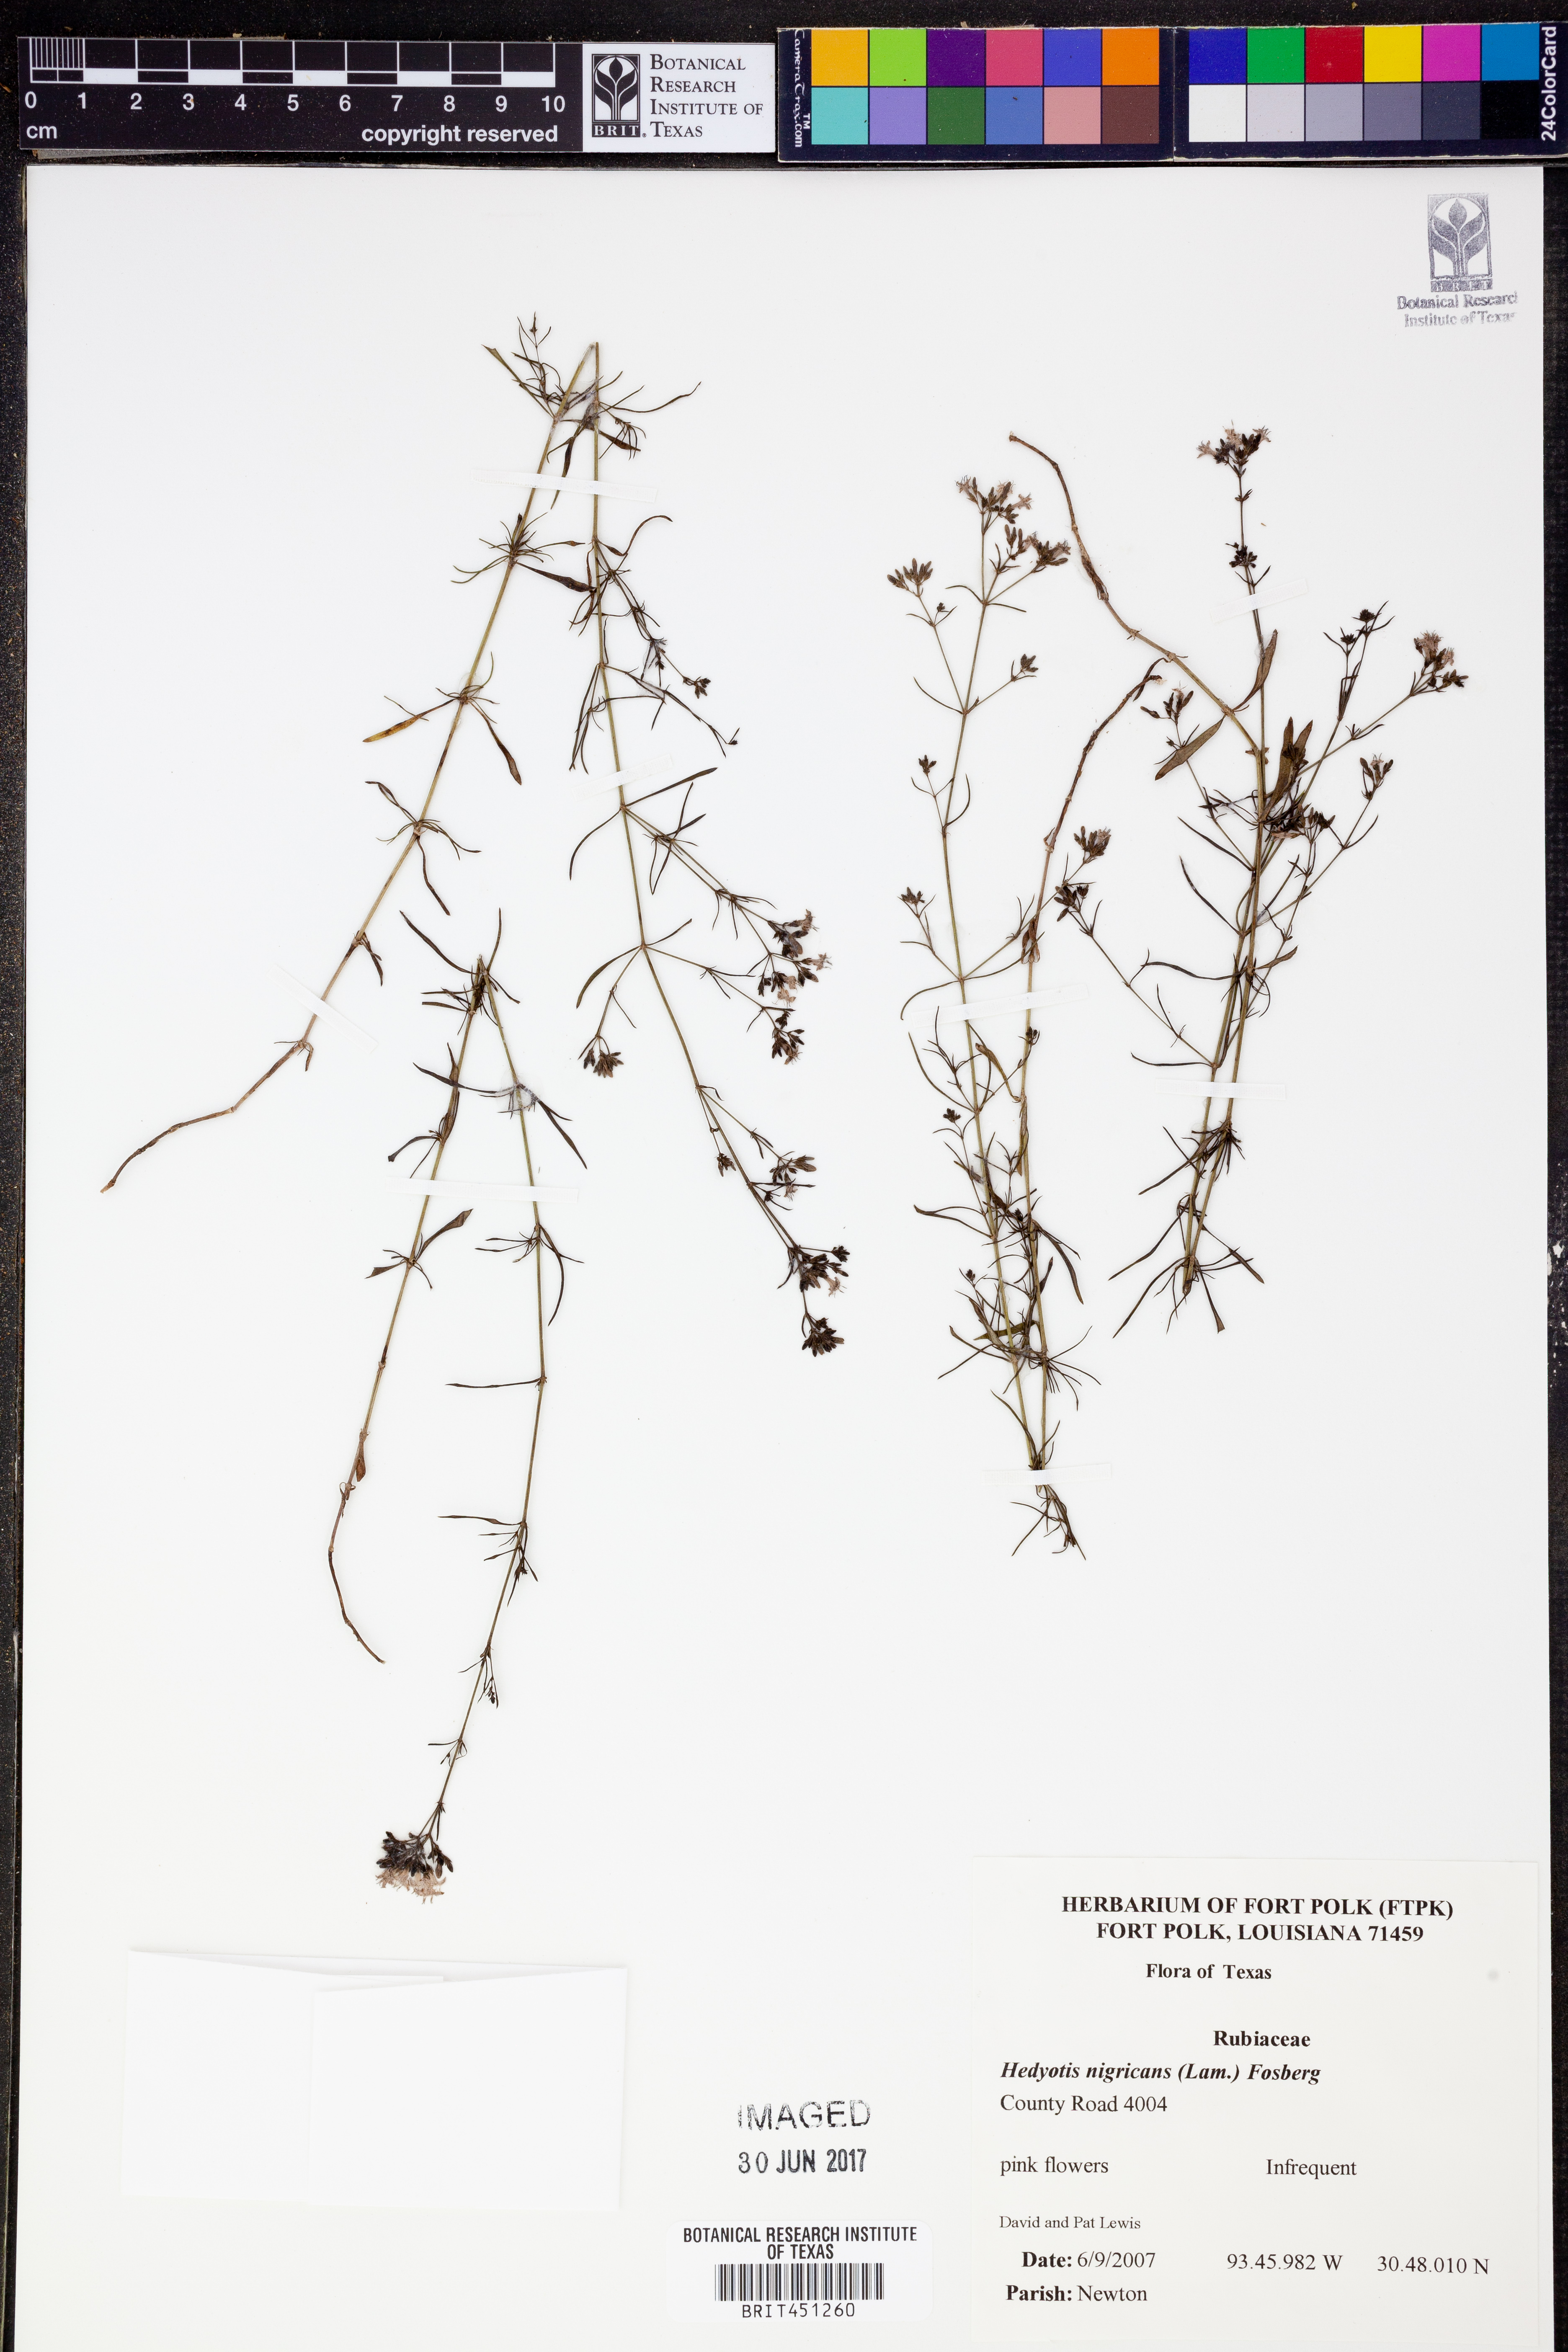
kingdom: Plantae
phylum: Tracheophyta
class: Magnoliopsida
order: Gentianales
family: Rubiaceae
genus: Stenaria
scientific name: Stenaria nigricans
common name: Diamondflowers
